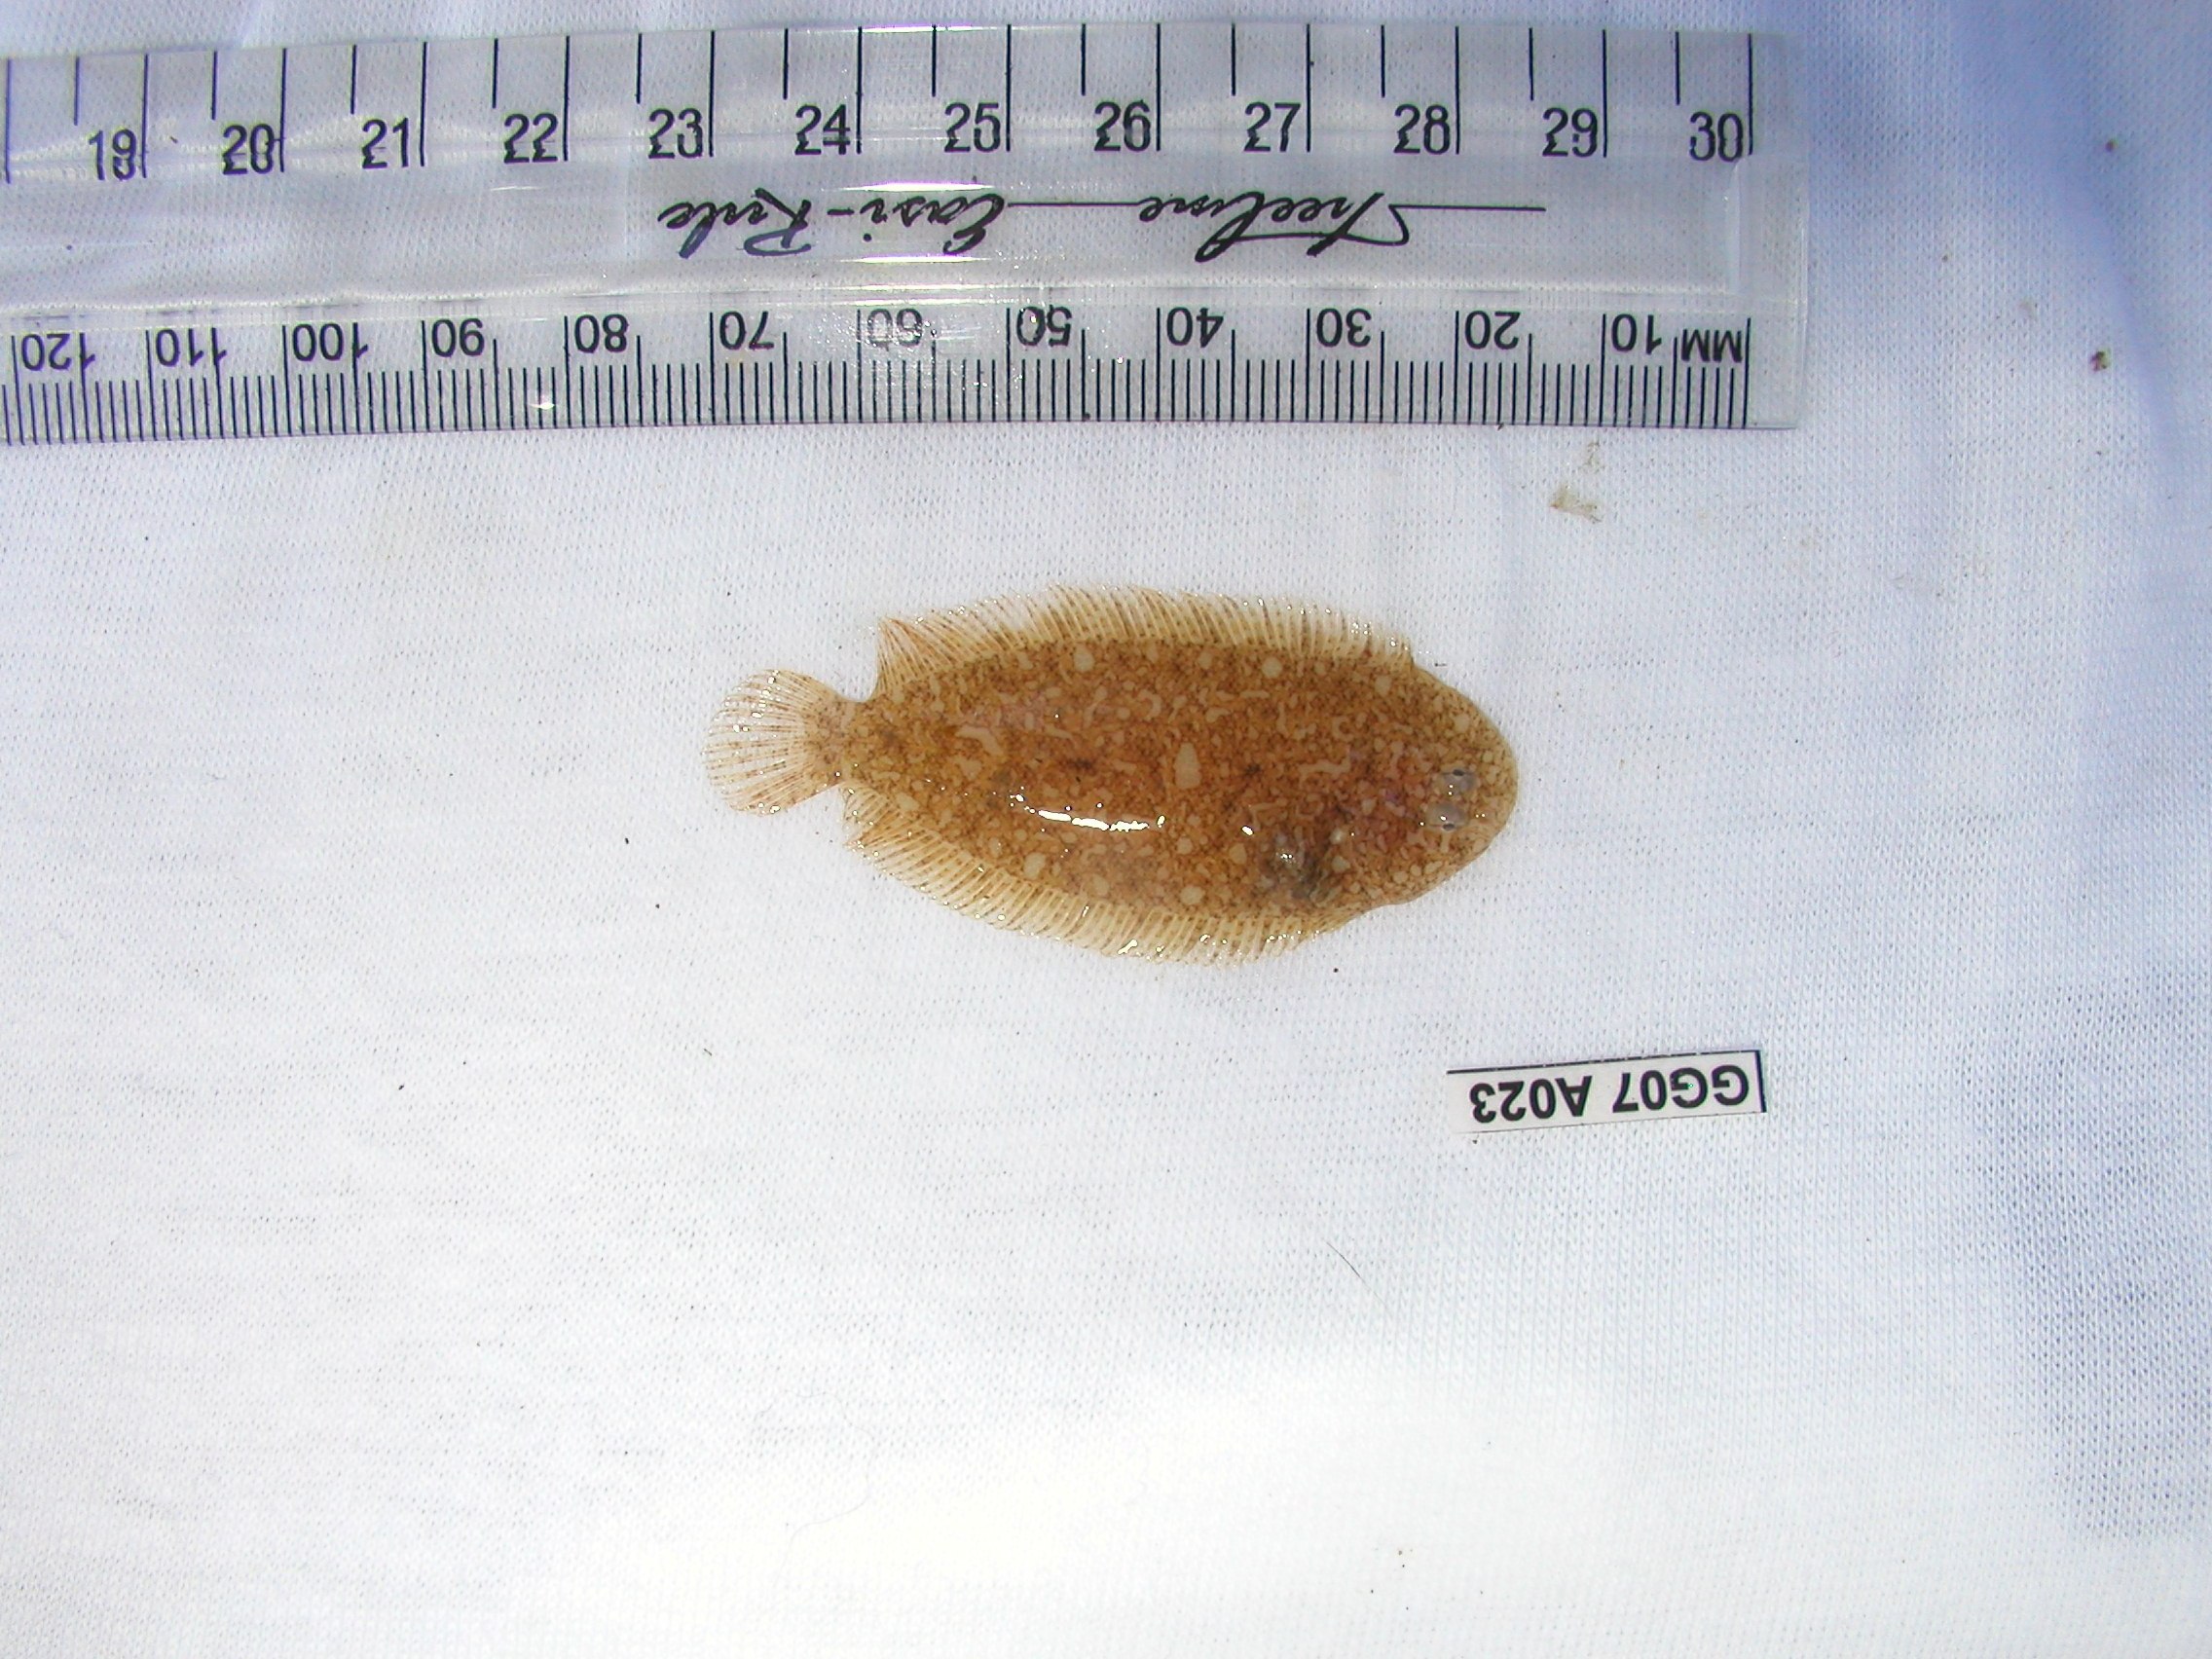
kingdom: Animalia
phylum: Chordata
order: Pleuronectiformes
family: Soleidae
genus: Aseraggodes
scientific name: Aseraggodes heemstrai
